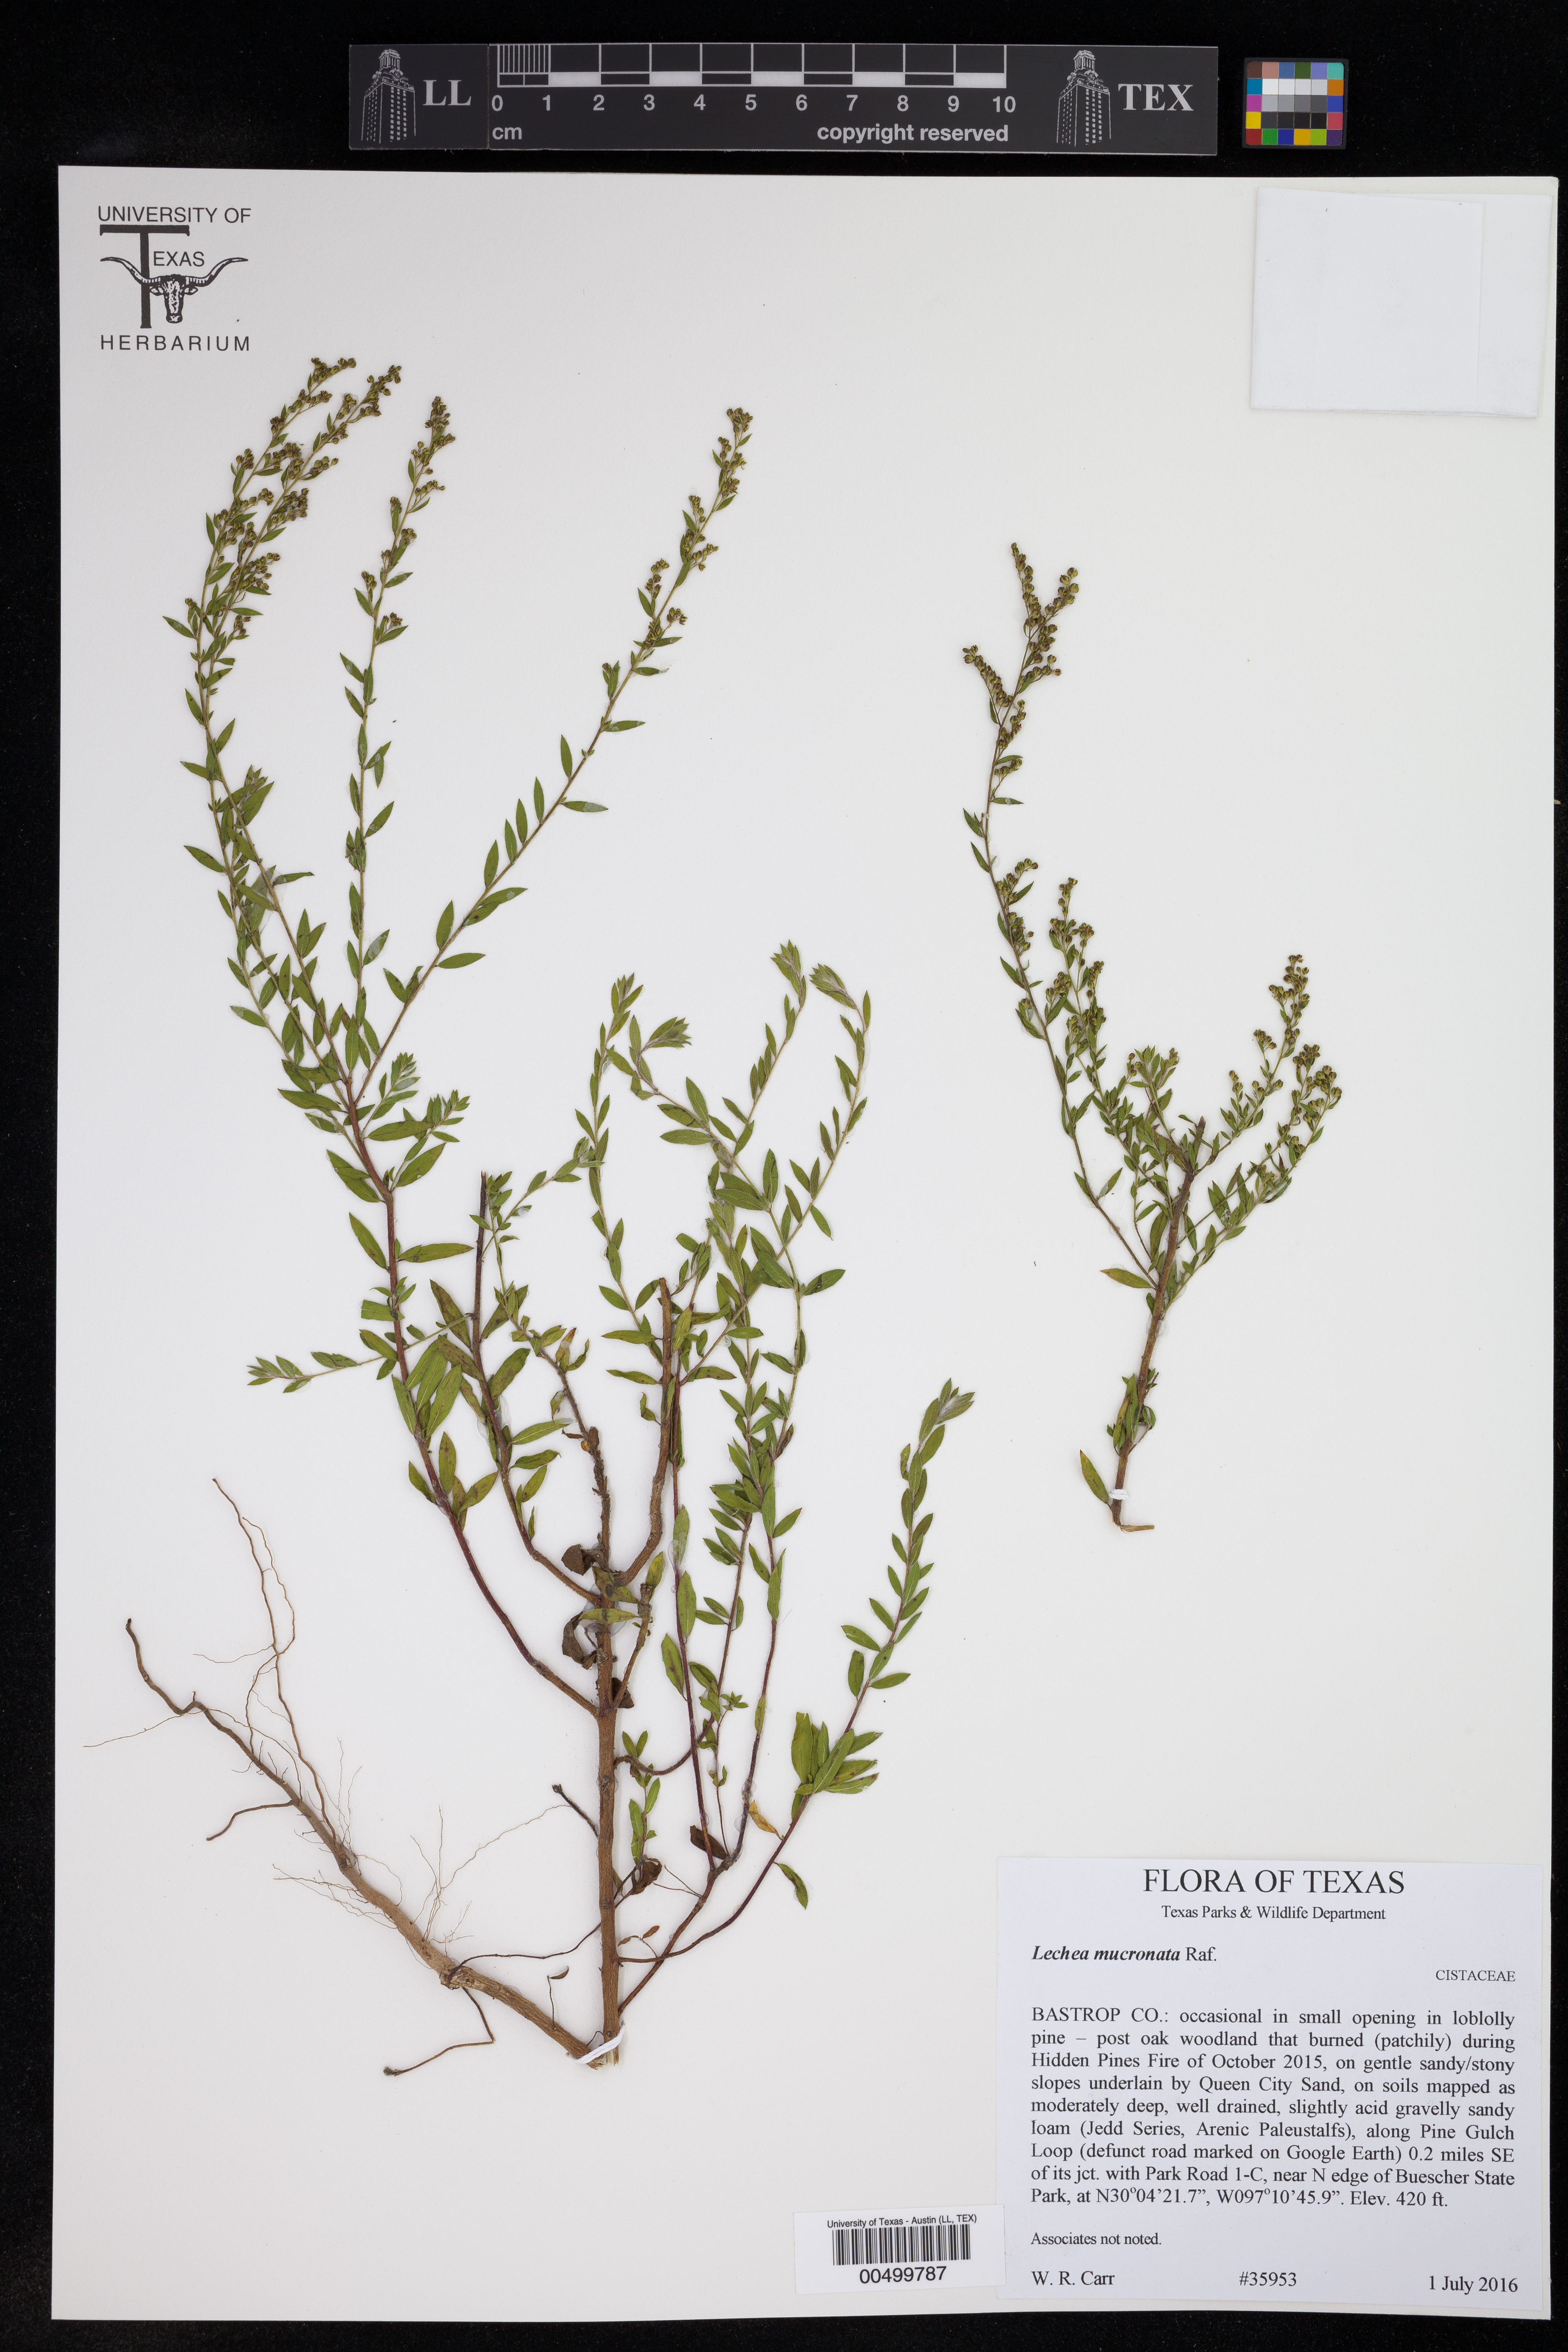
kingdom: Plantae
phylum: Tracheophyta
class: Magnoliopsida
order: Malvales
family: Cistaceae
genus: Lechea
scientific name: Lechea mucronata
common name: Hairy pinweed
